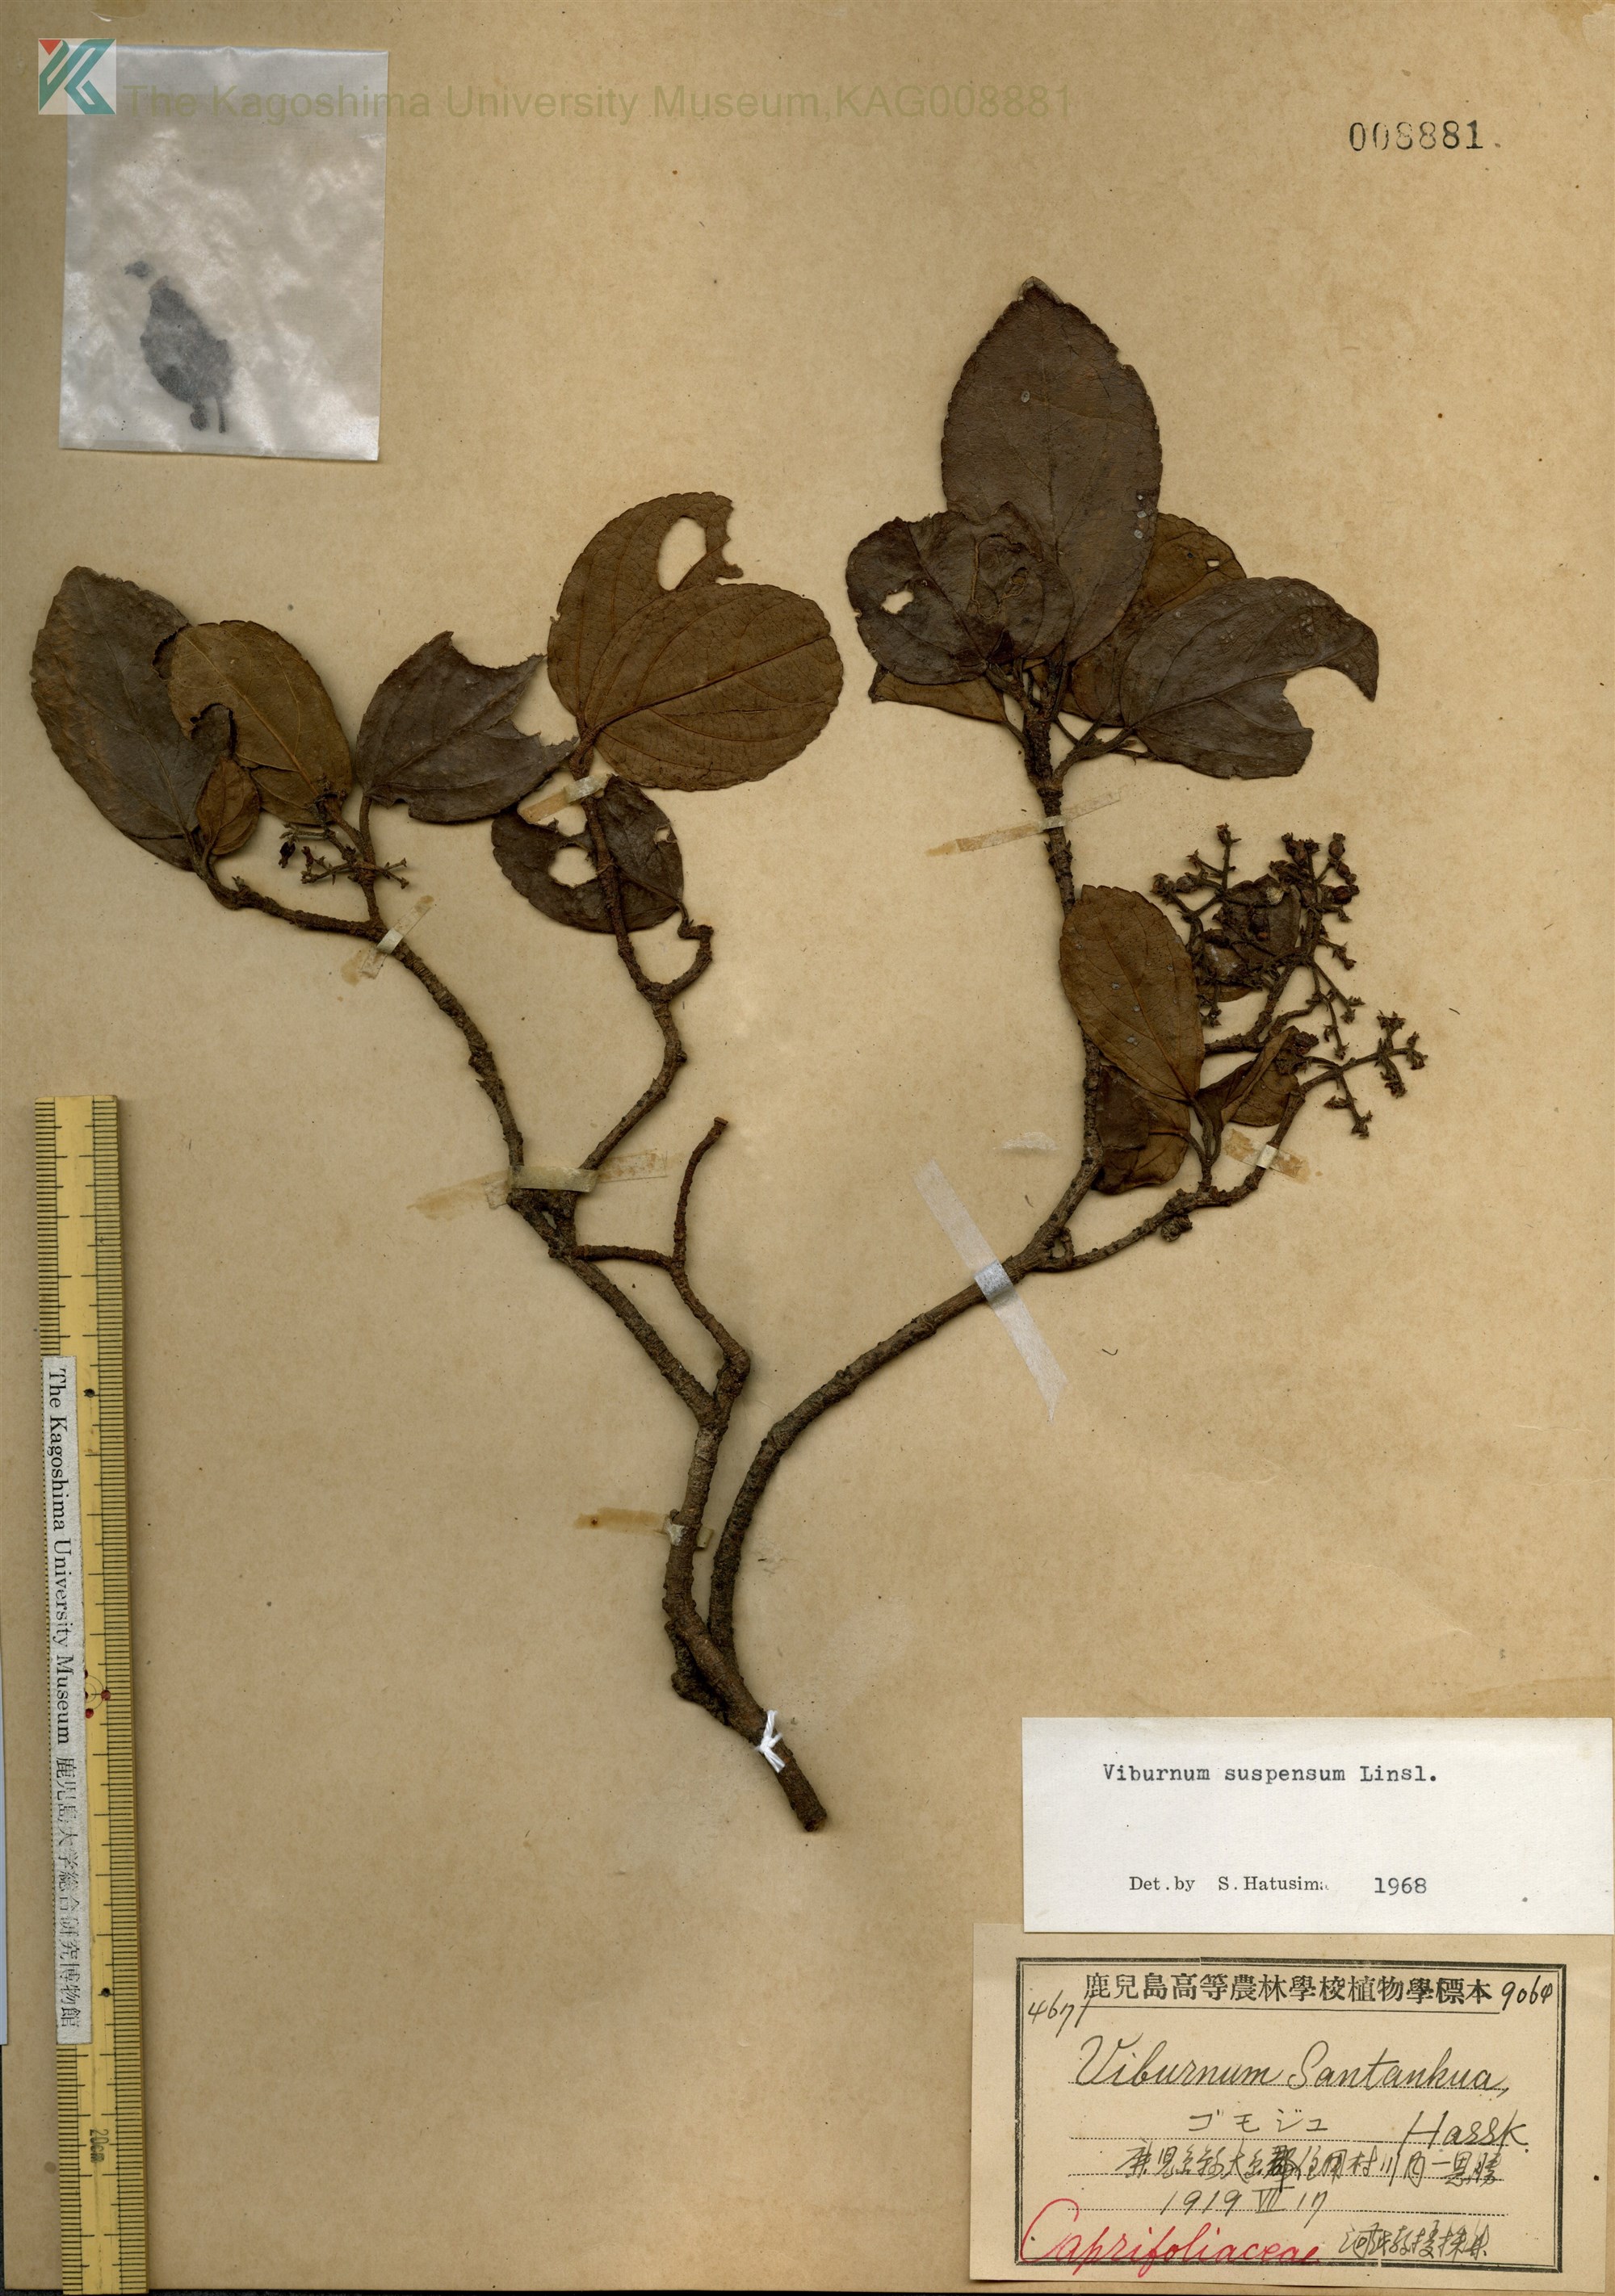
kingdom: Plantae
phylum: Tracheophyta
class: Magnoliopsida
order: Dipsacales
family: Viburnaceae
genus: Viburnum
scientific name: Viburnum sieboldii
